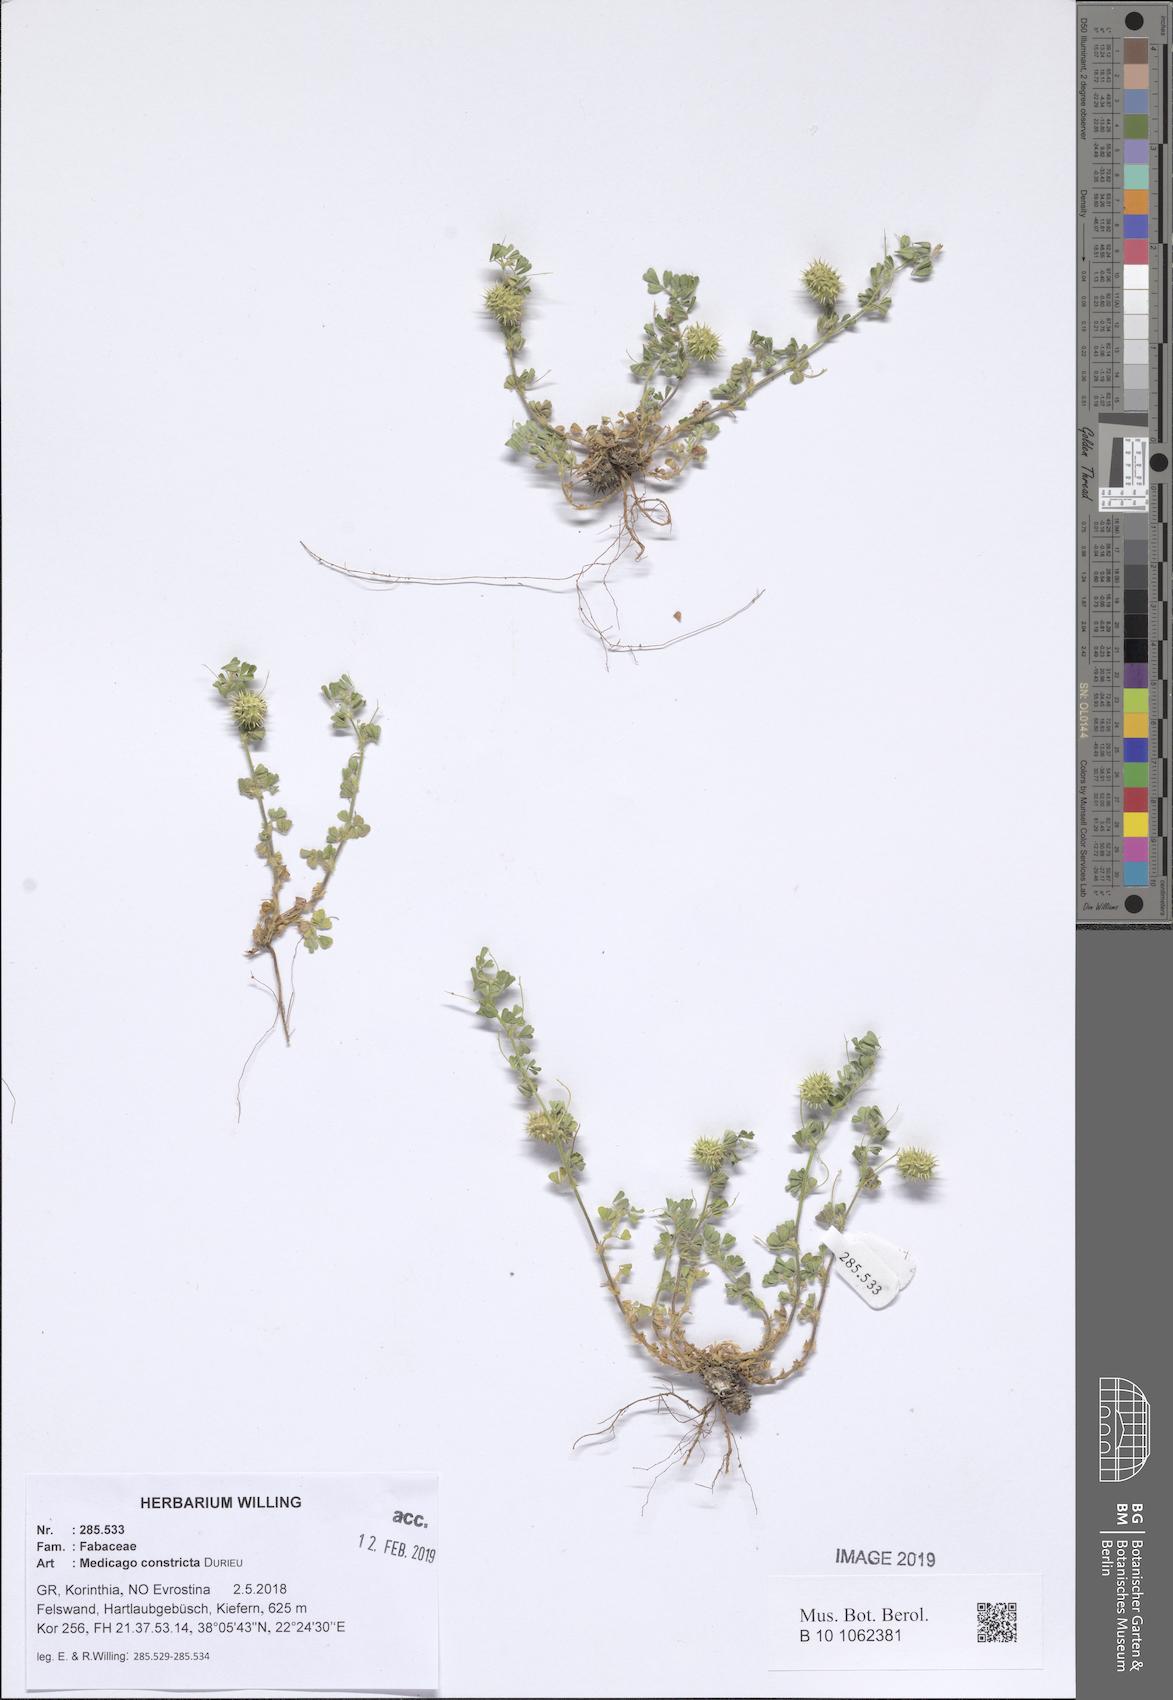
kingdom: Plantae
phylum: Tracheophyta
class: Magnoliopsida
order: Fabales
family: Fabaceae
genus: Medicago
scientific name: Medicago constricta
